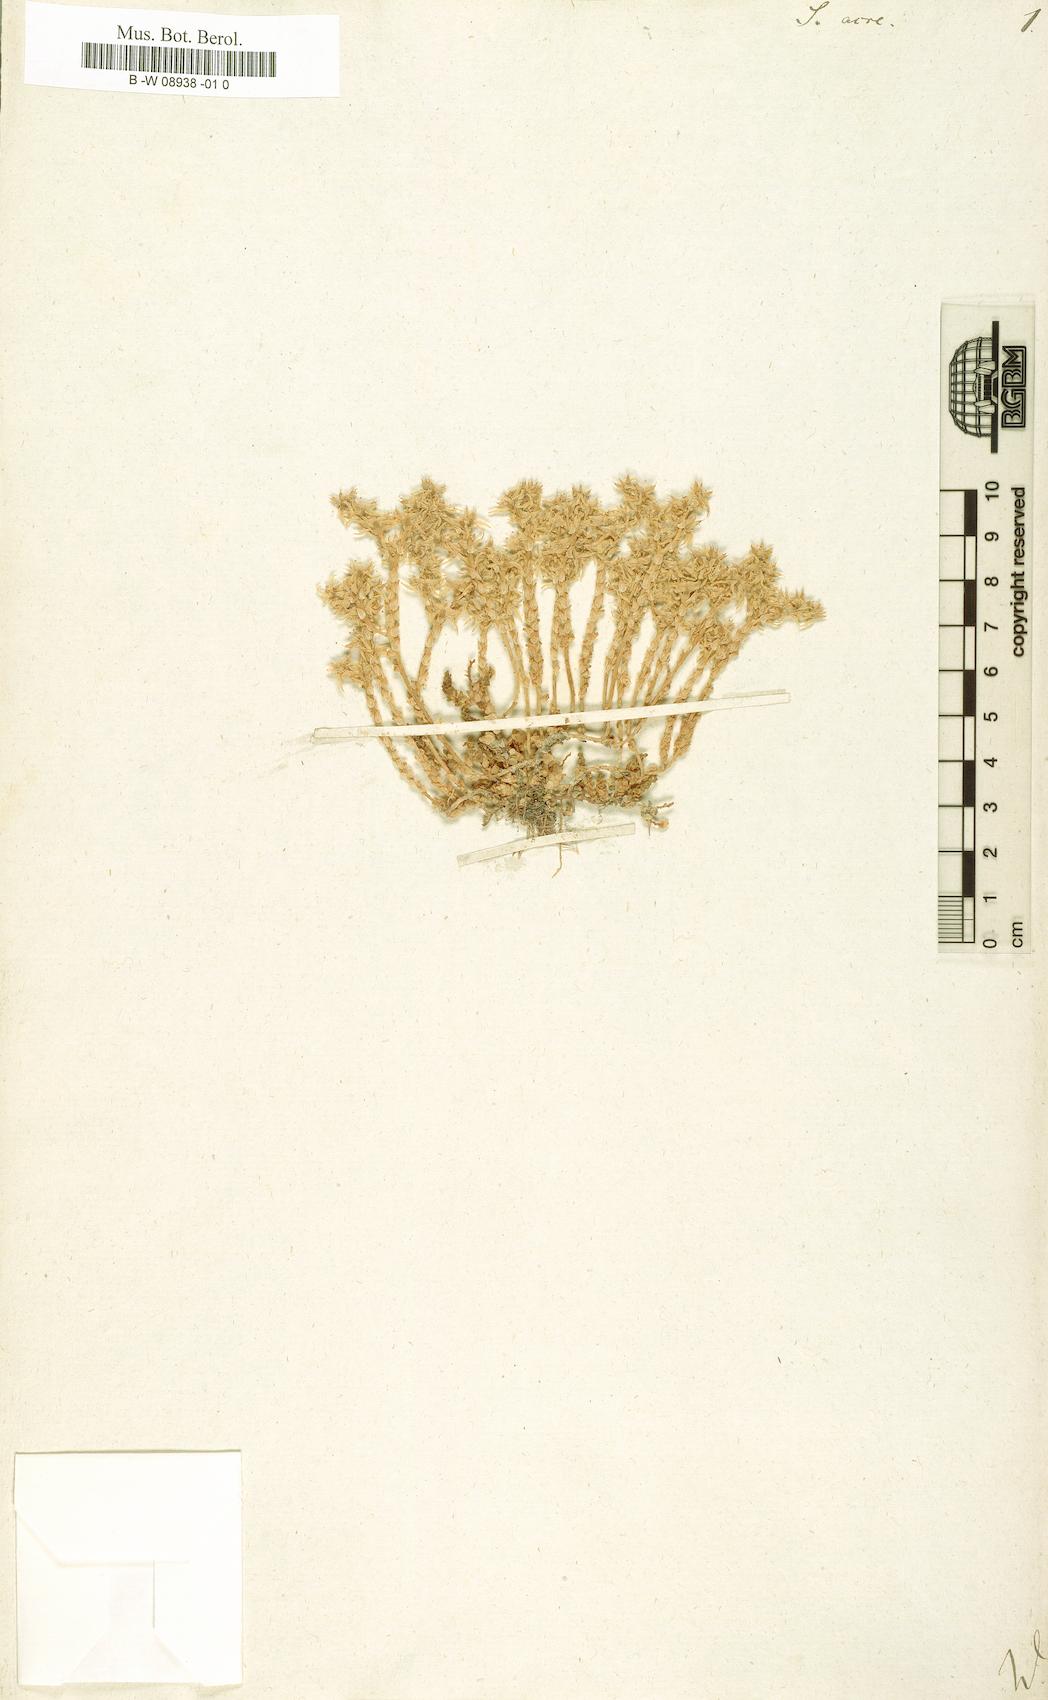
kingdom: Plantae
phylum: Tracheophyta
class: Magnoliopsida
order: Saxifragales
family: Crassulaceae
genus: Sedum
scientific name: Sedum acre
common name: Biting stonecrop
